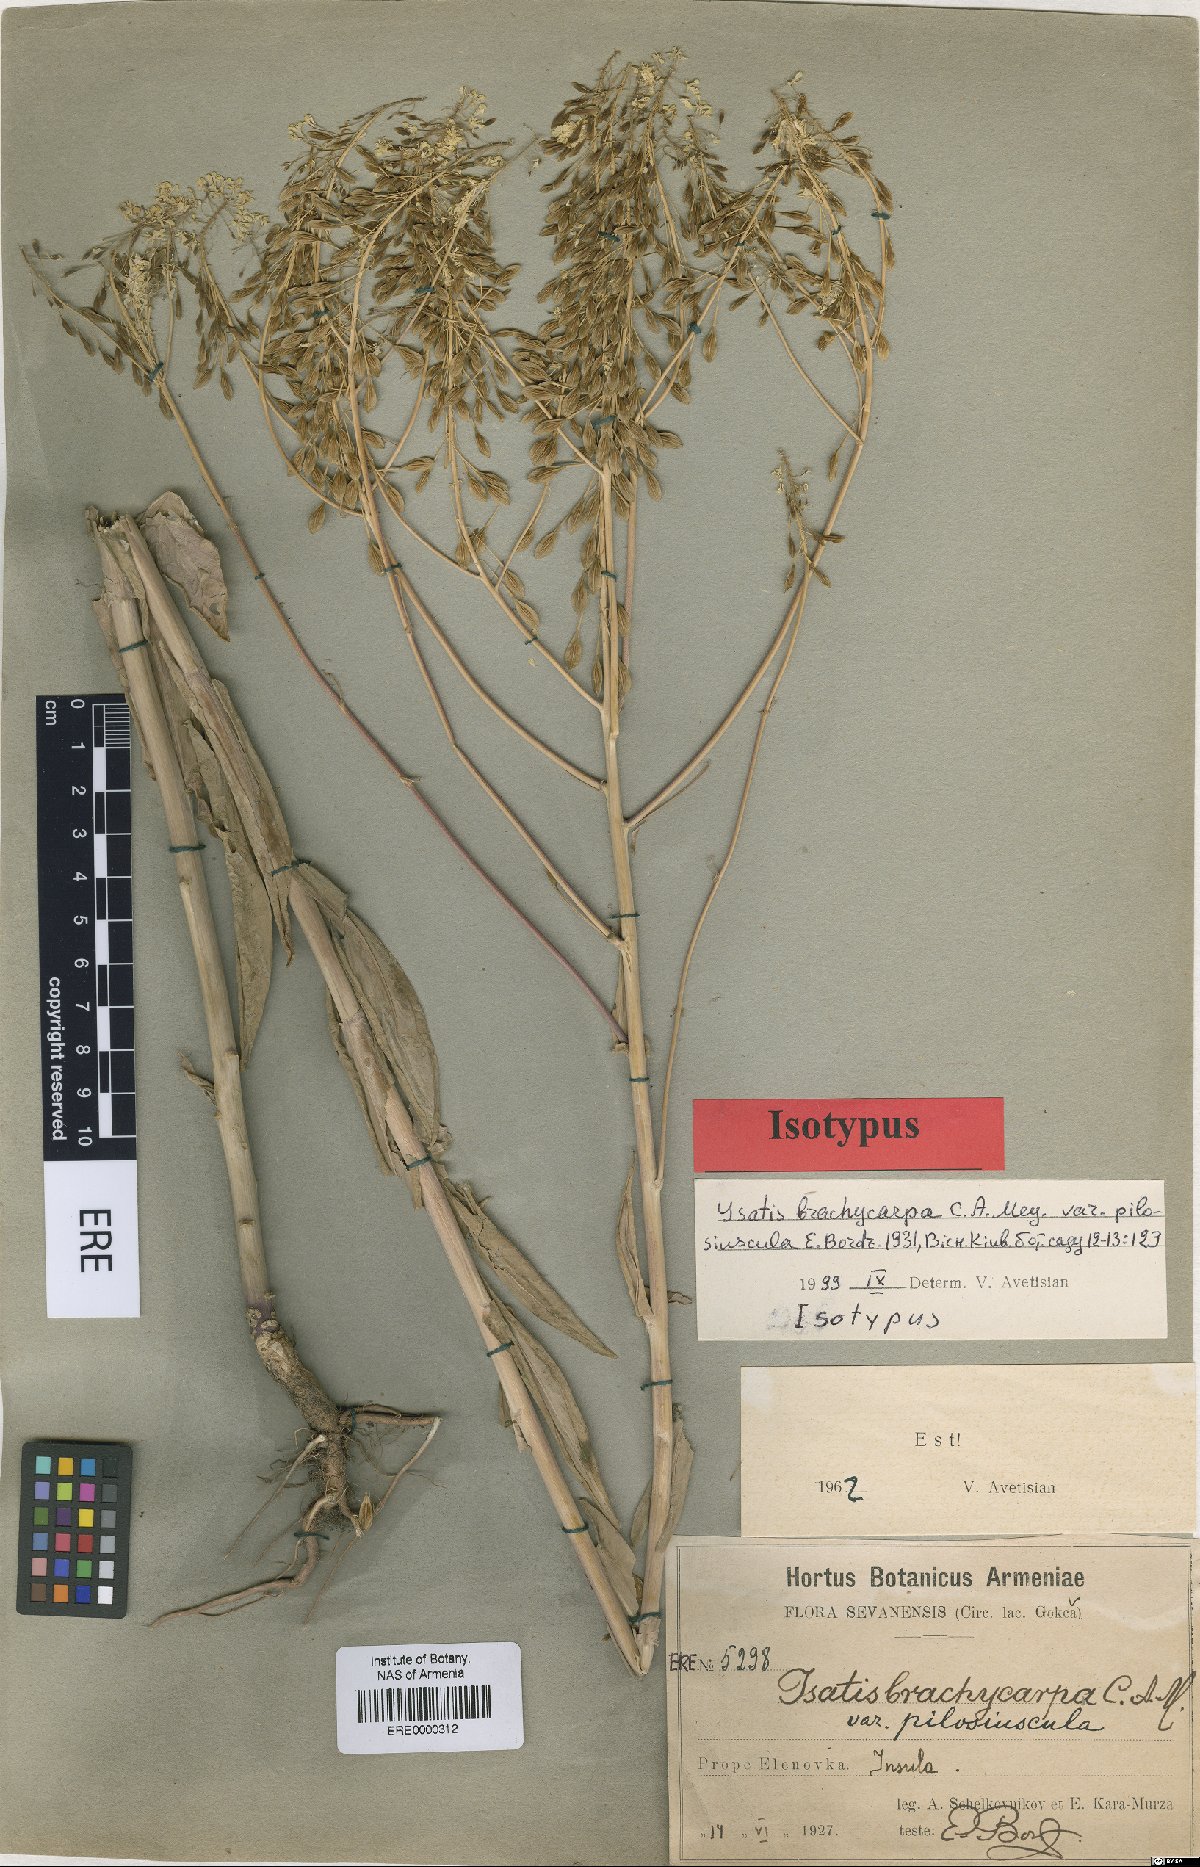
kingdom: Plantae
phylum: Tracheophyta
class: Magnoliopsida
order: Brassicales
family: Brassicaceae
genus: Isatis
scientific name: Isatis brachycarpa
